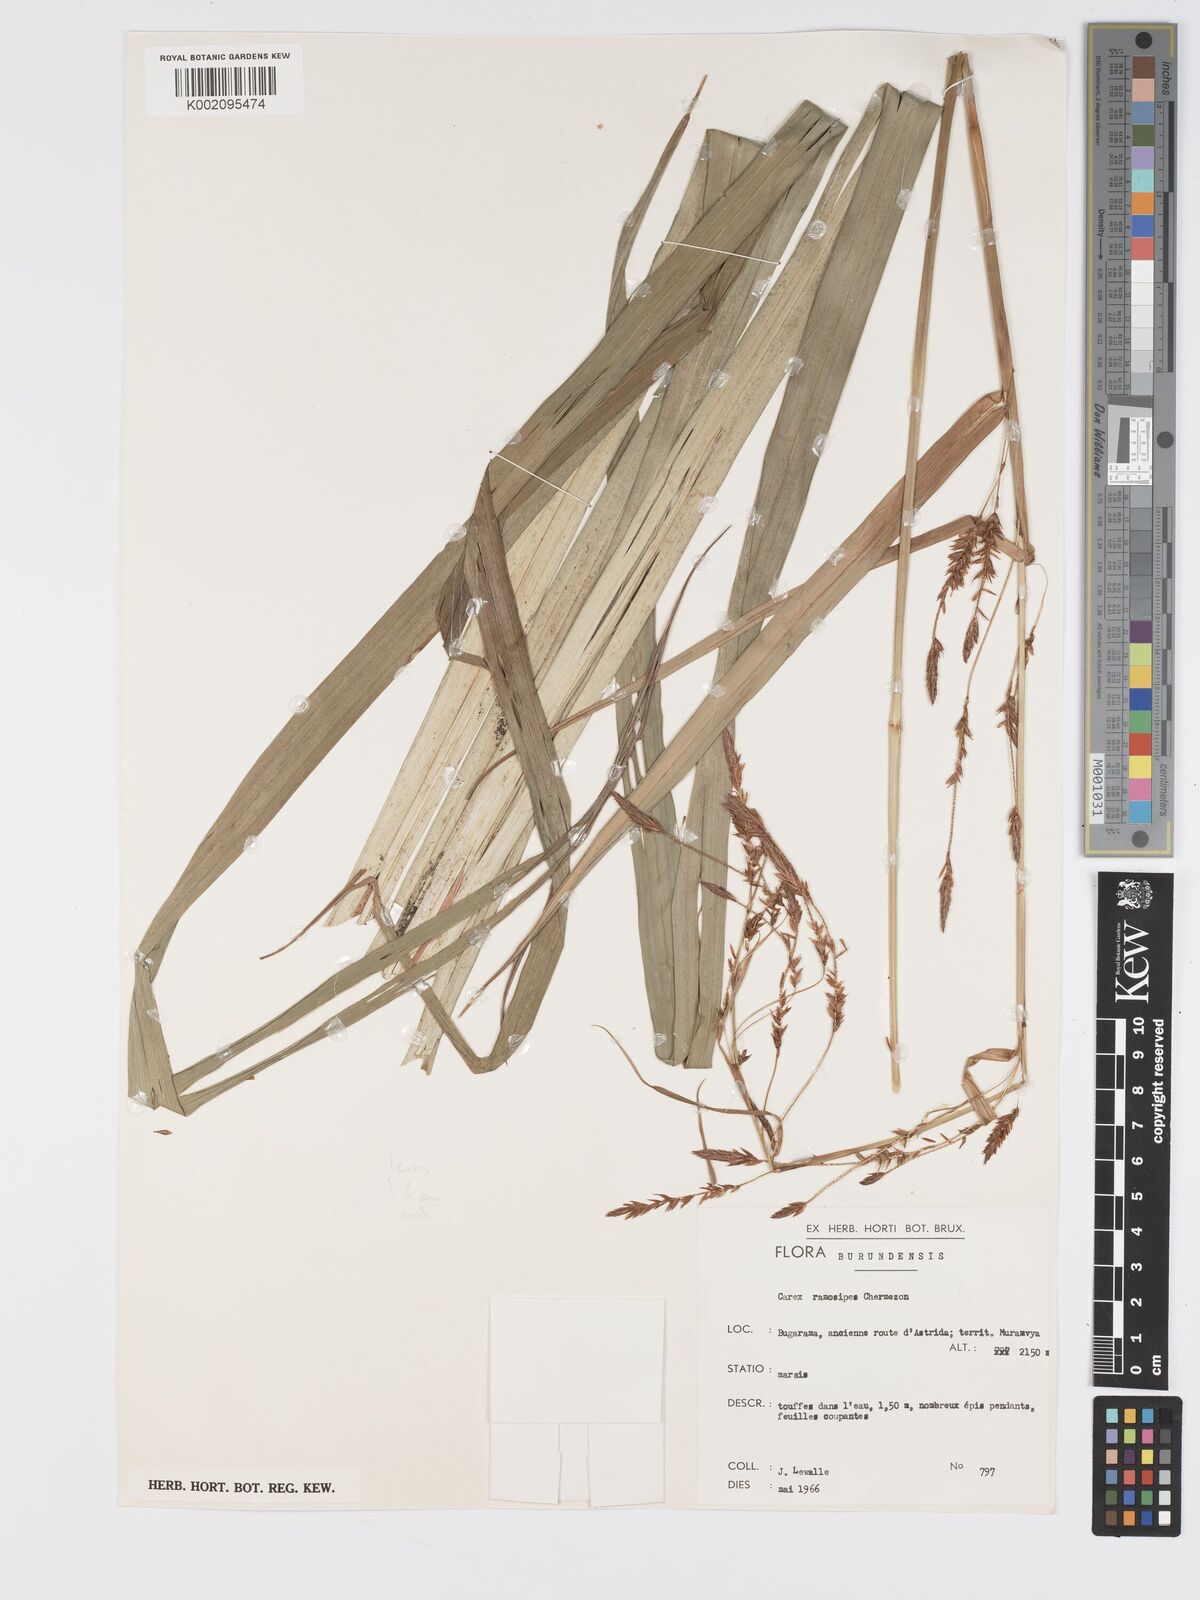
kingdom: Plantae
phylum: Tracheophyta
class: Liliopsida
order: Poales
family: Cyperaceae
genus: Carex
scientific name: Carex mildbraediana
